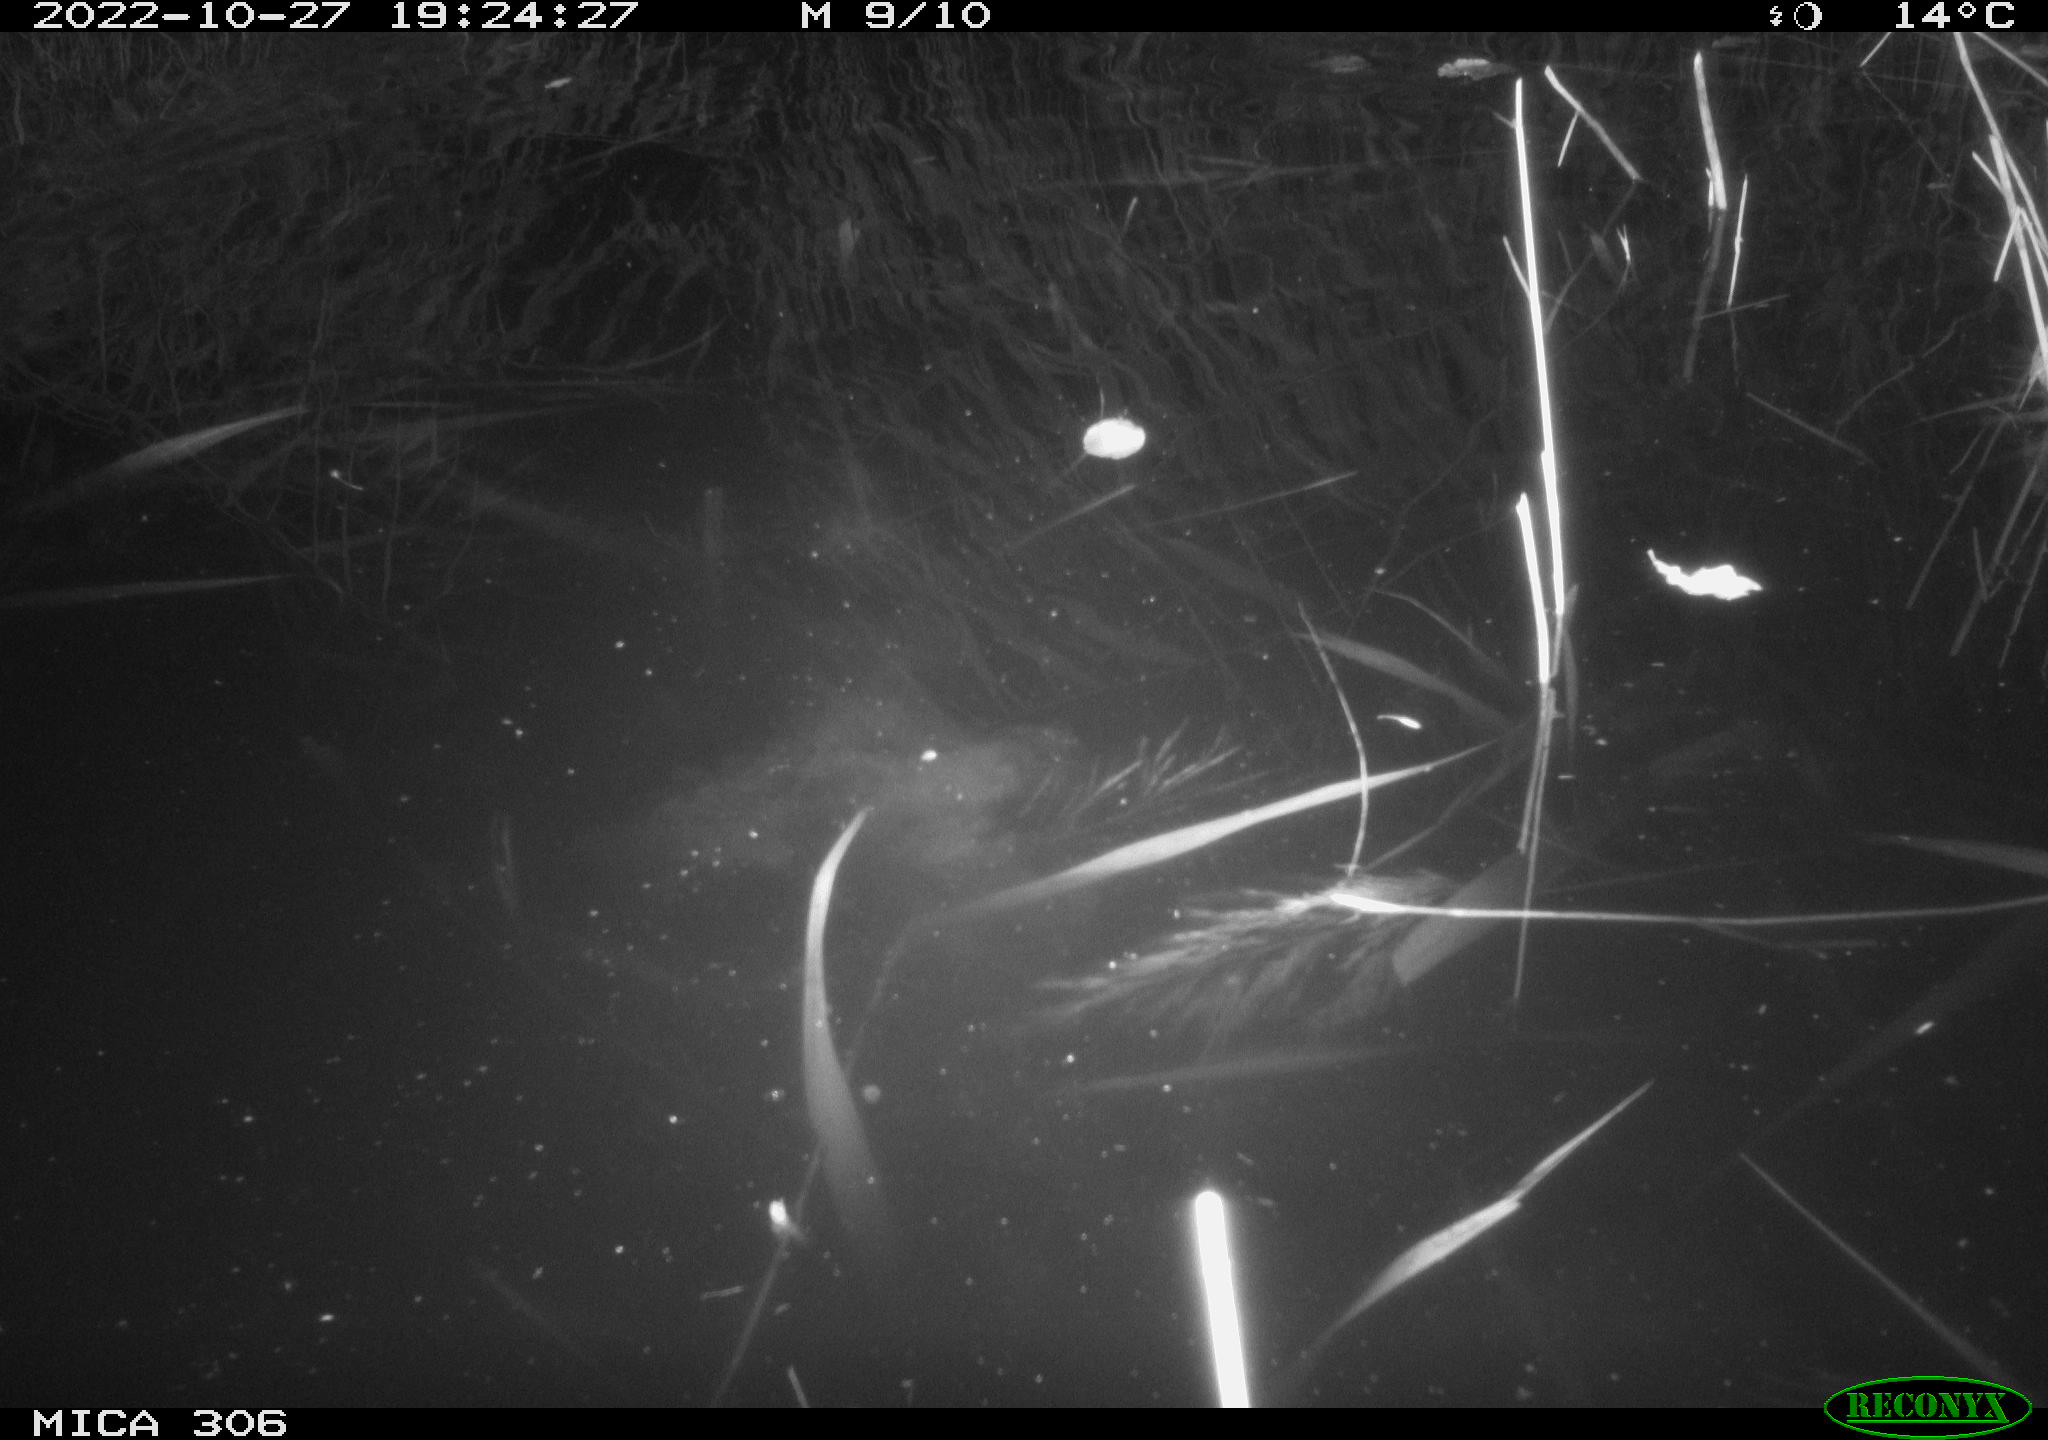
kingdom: Animalia
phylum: Chordata
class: Mammalia
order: Rodentia
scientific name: Rodentia
